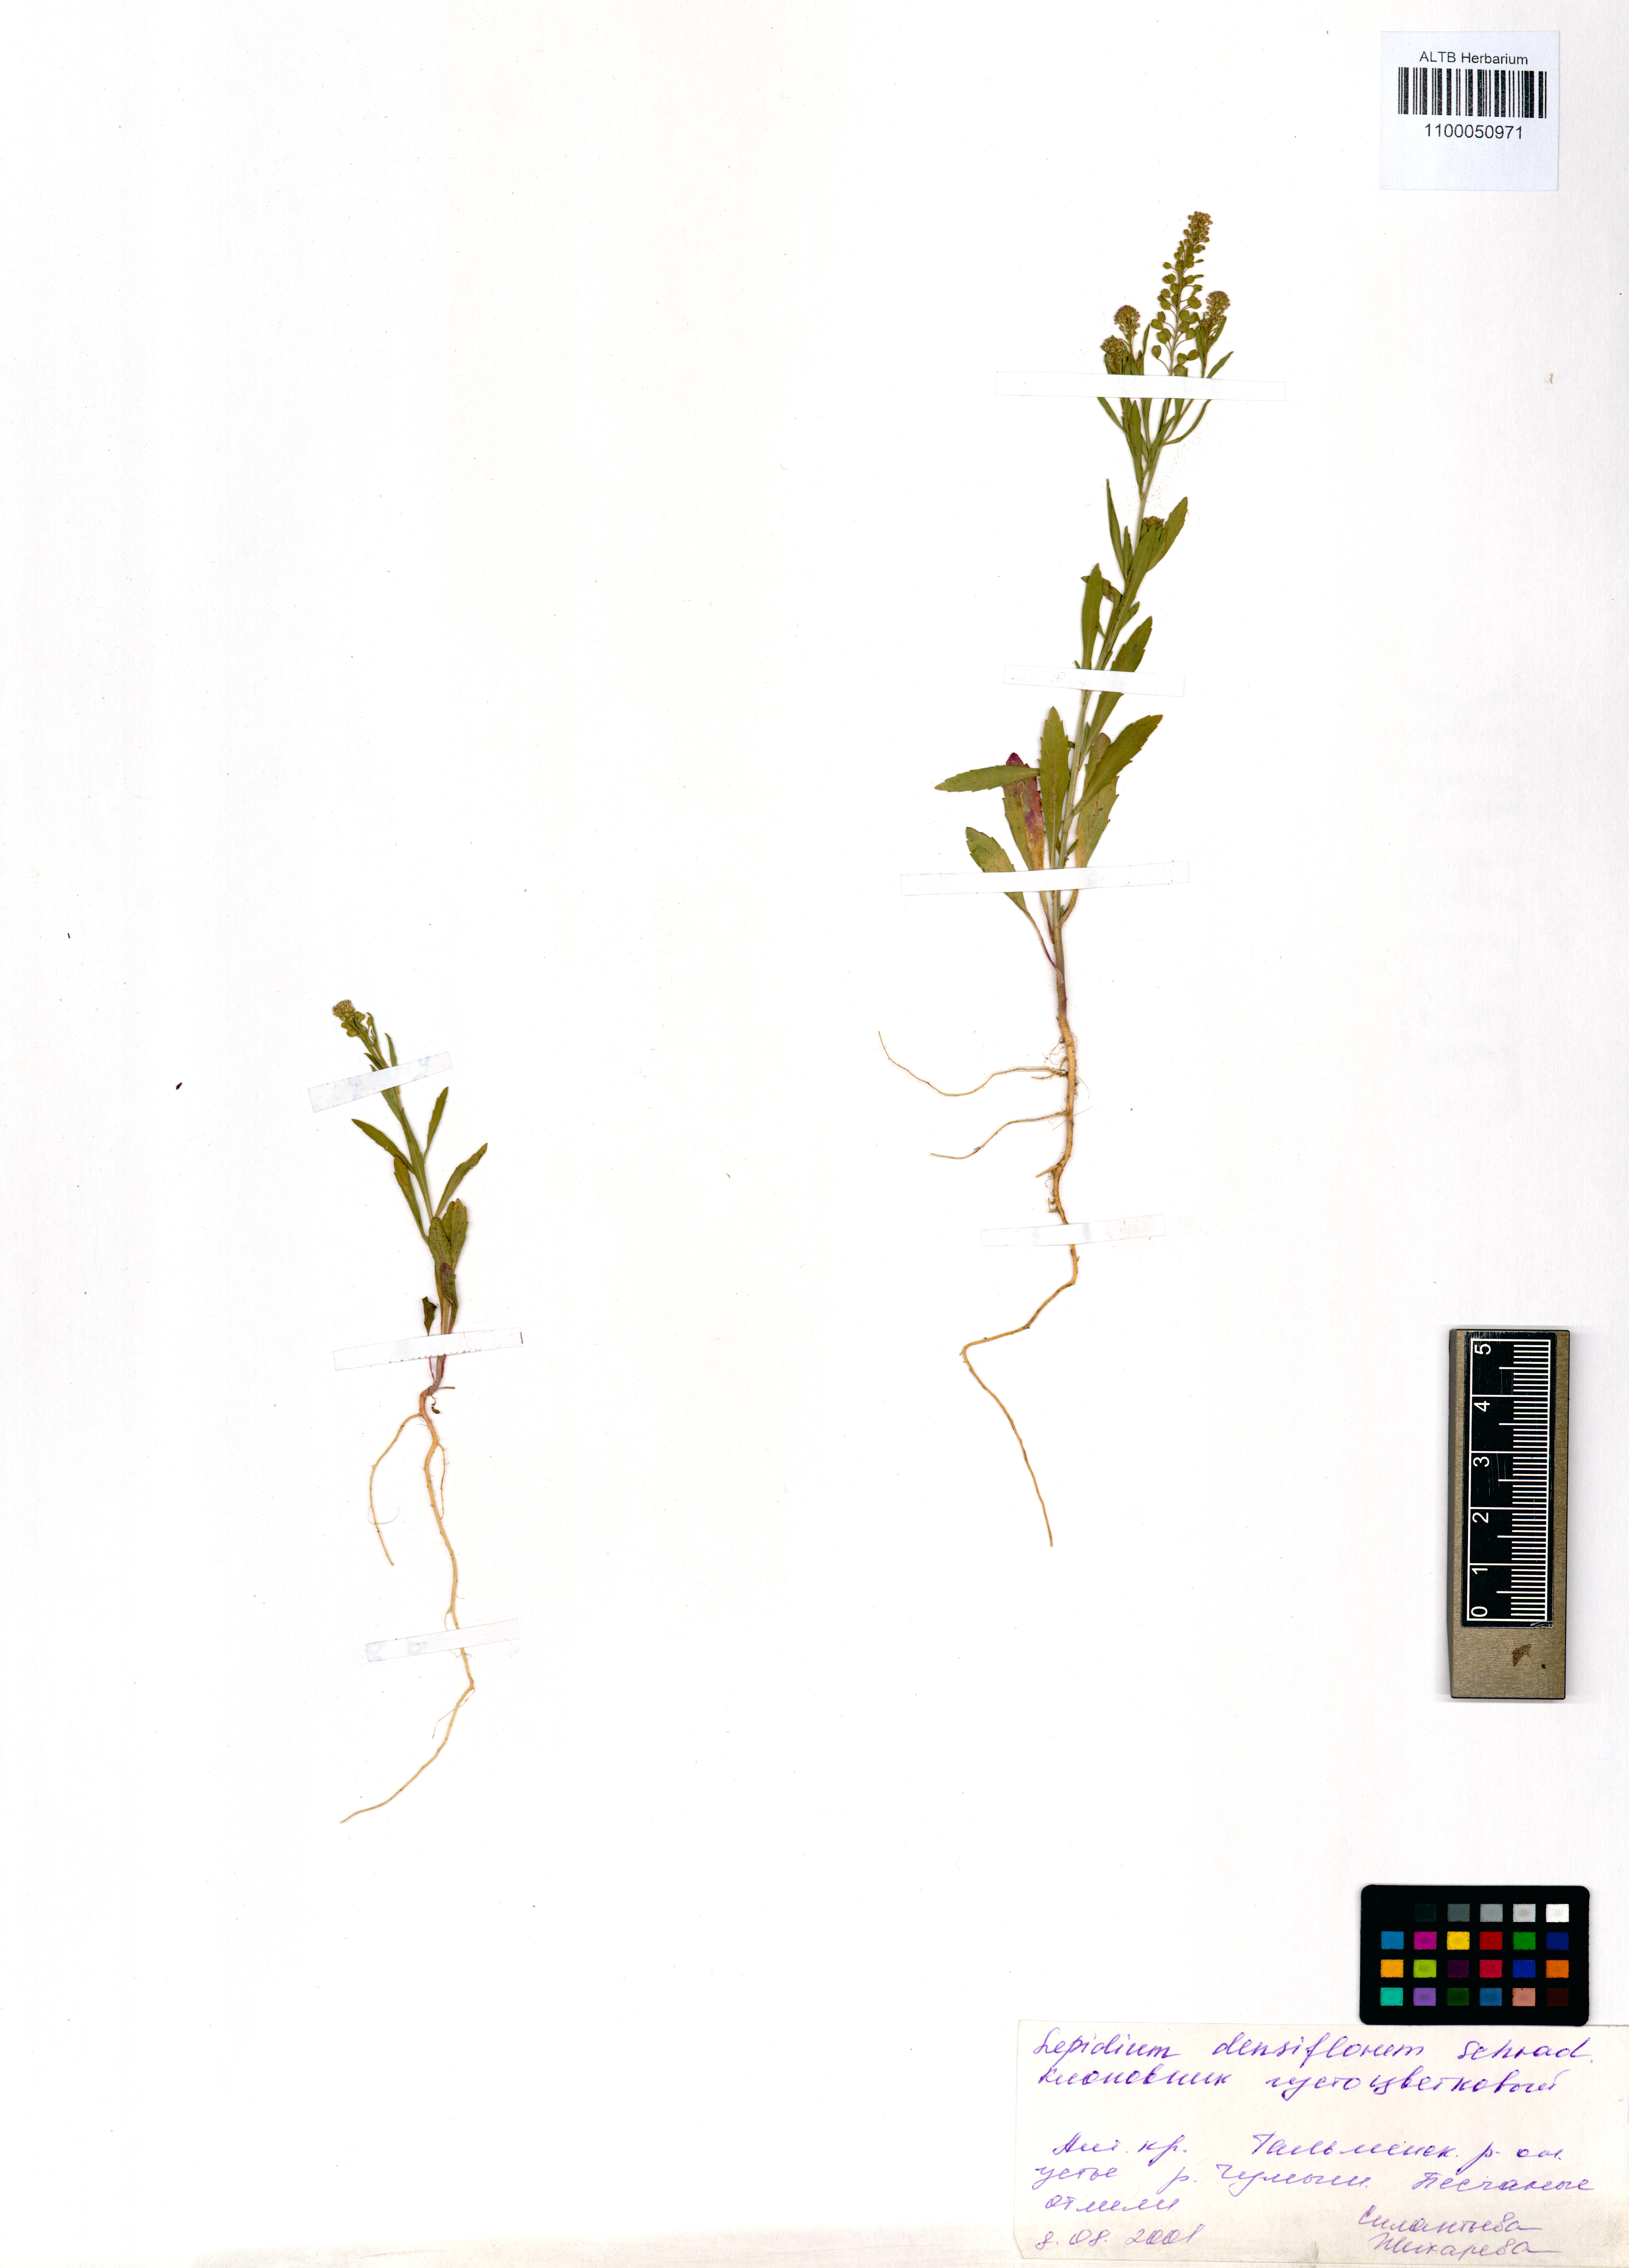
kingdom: Plantae
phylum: Tracheophyta
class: Magnoliopsida
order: Brassicales
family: Brassicaceae
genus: Lepidium
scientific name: Lepidium densiflorum
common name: Miner's pepperwort
